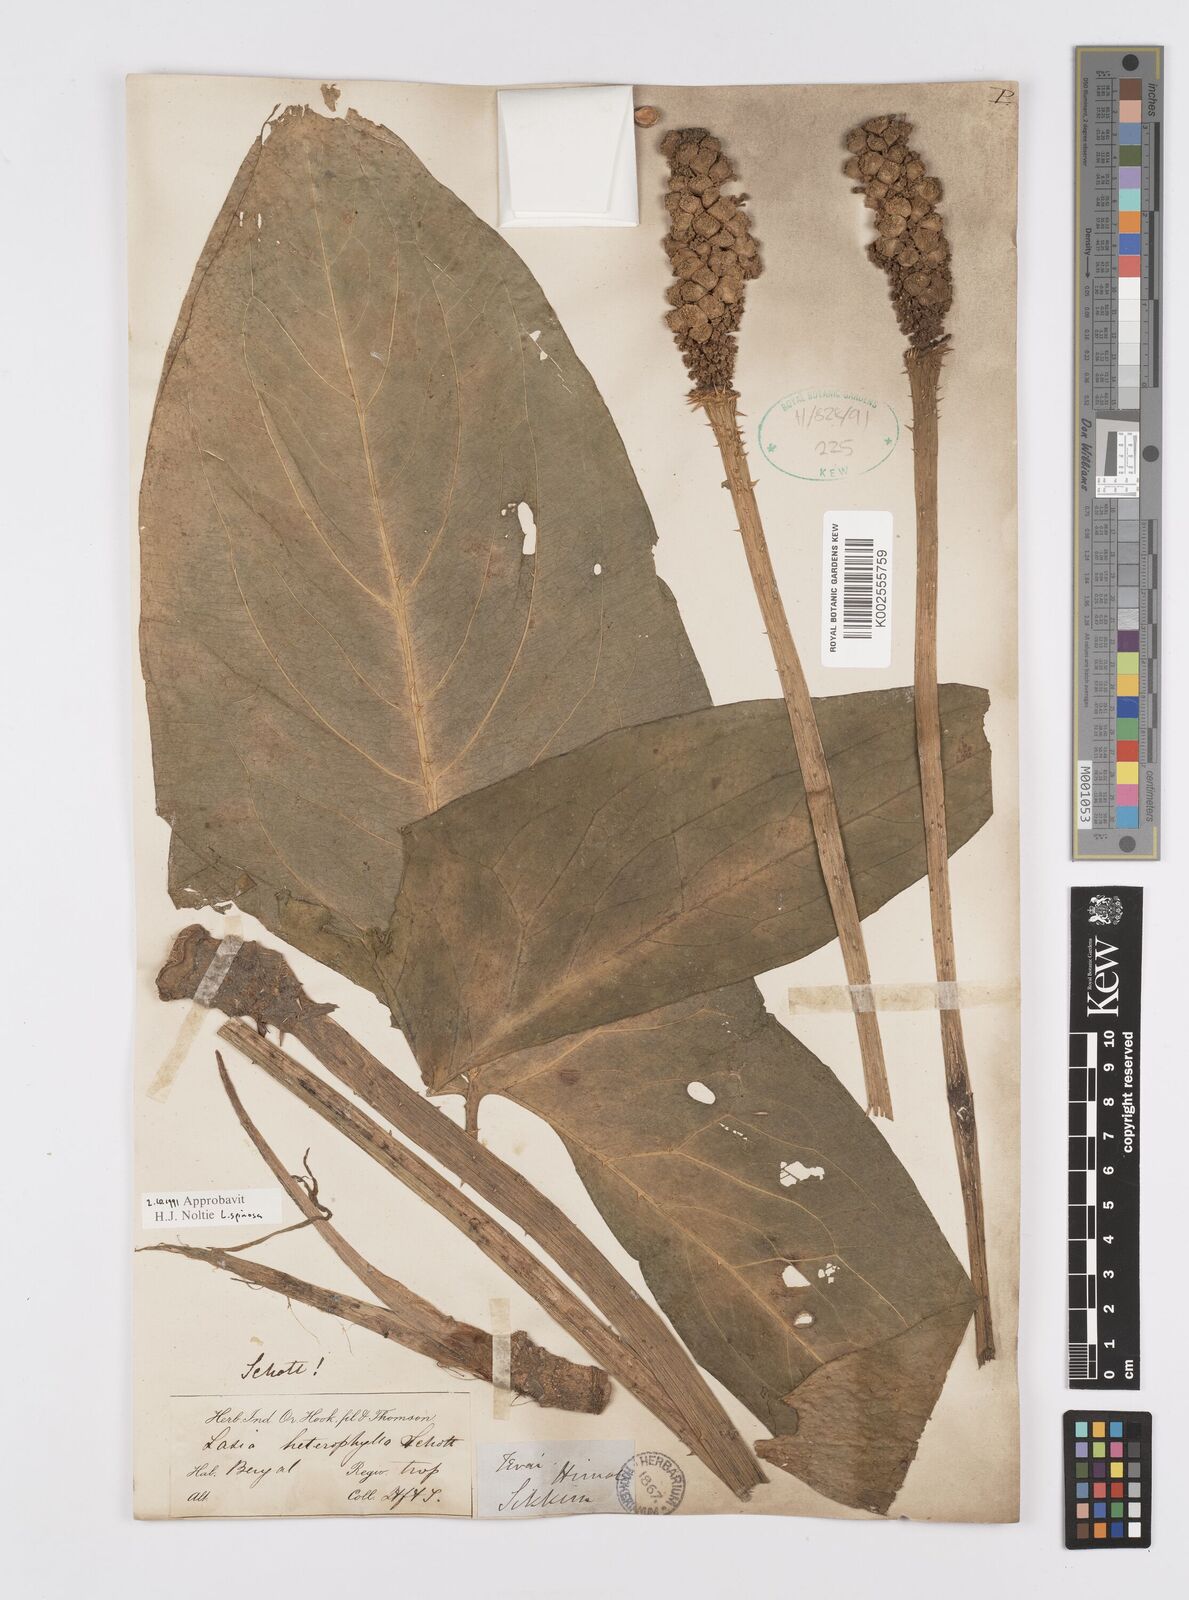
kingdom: Plantae
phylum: Tracheophyta
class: Liliopsida
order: Alismatales
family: Araceae
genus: Lasia
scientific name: Lasia spinosa
